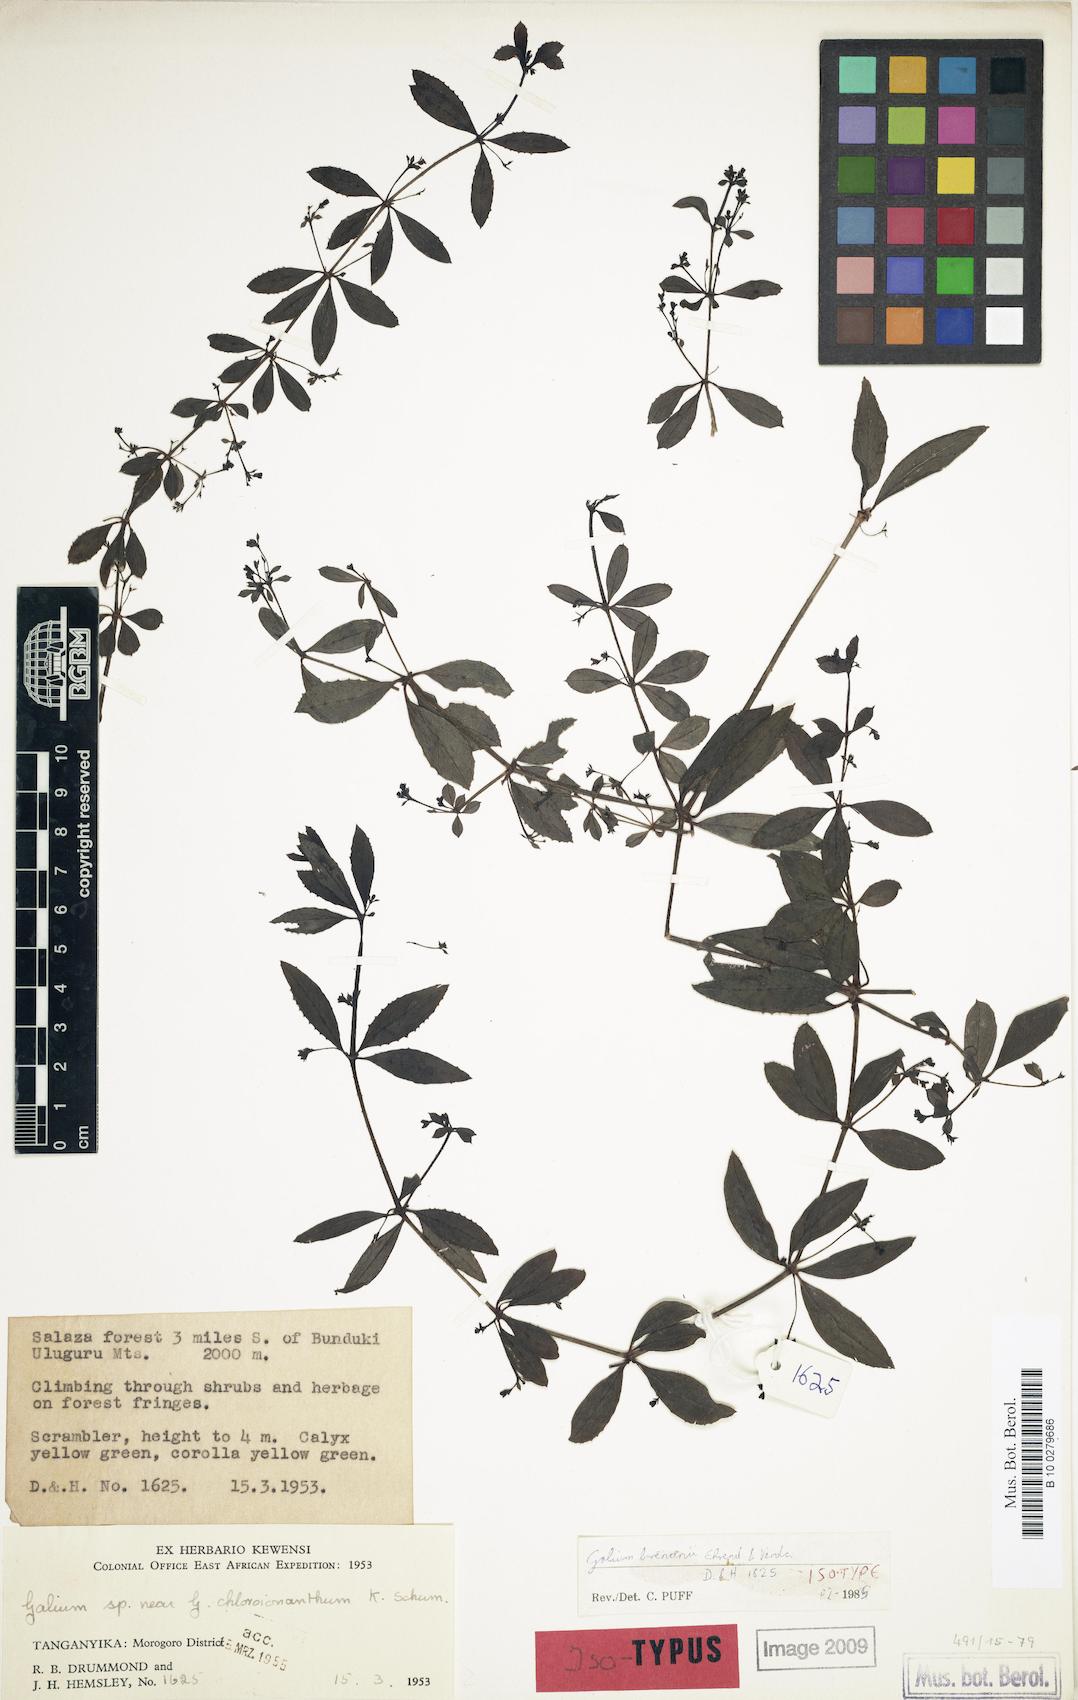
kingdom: Plantae
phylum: Tracheophyta
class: Magnoliopsida
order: Gentianales
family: Rubiaceae
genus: Galium
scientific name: Galium brenanii
